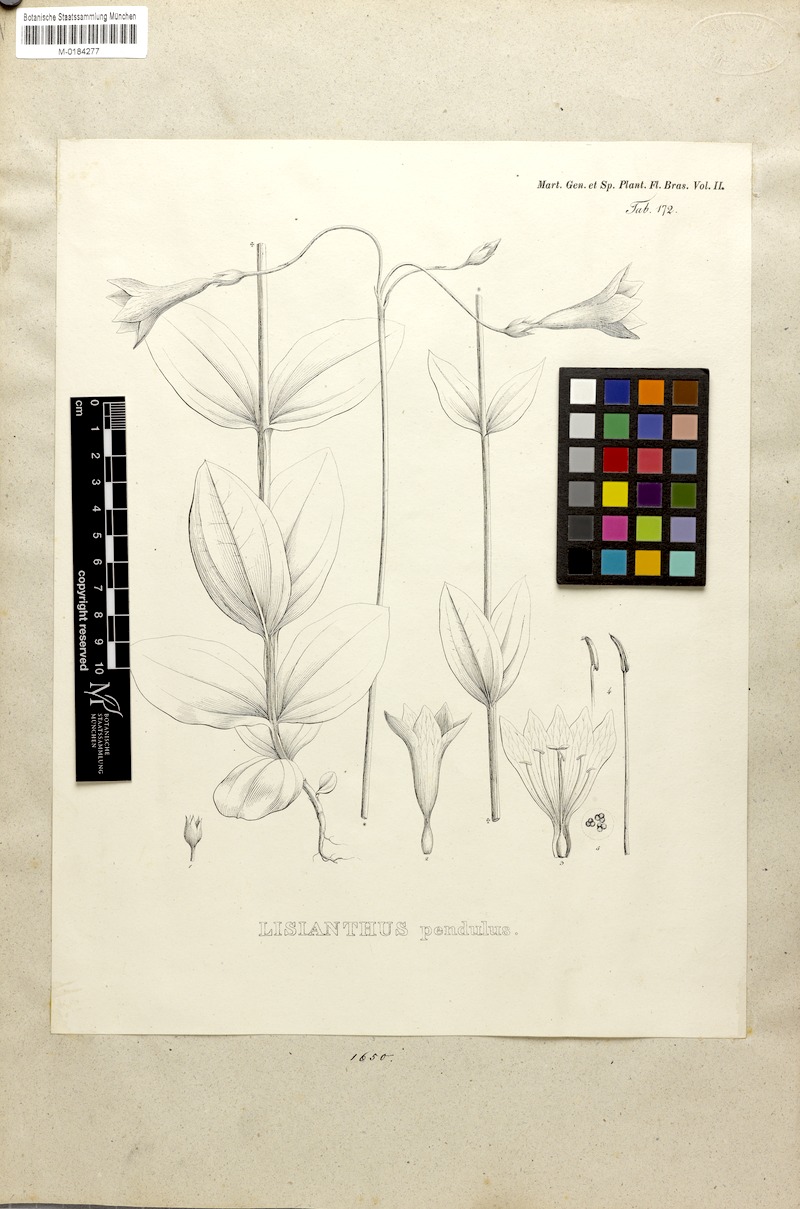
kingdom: Plantae
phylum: Tracheophyta
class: Magnoliopsida
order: Gentianales
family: Gentianaceae
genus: Calolisianthus
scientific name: Calolisianthus pendulus
